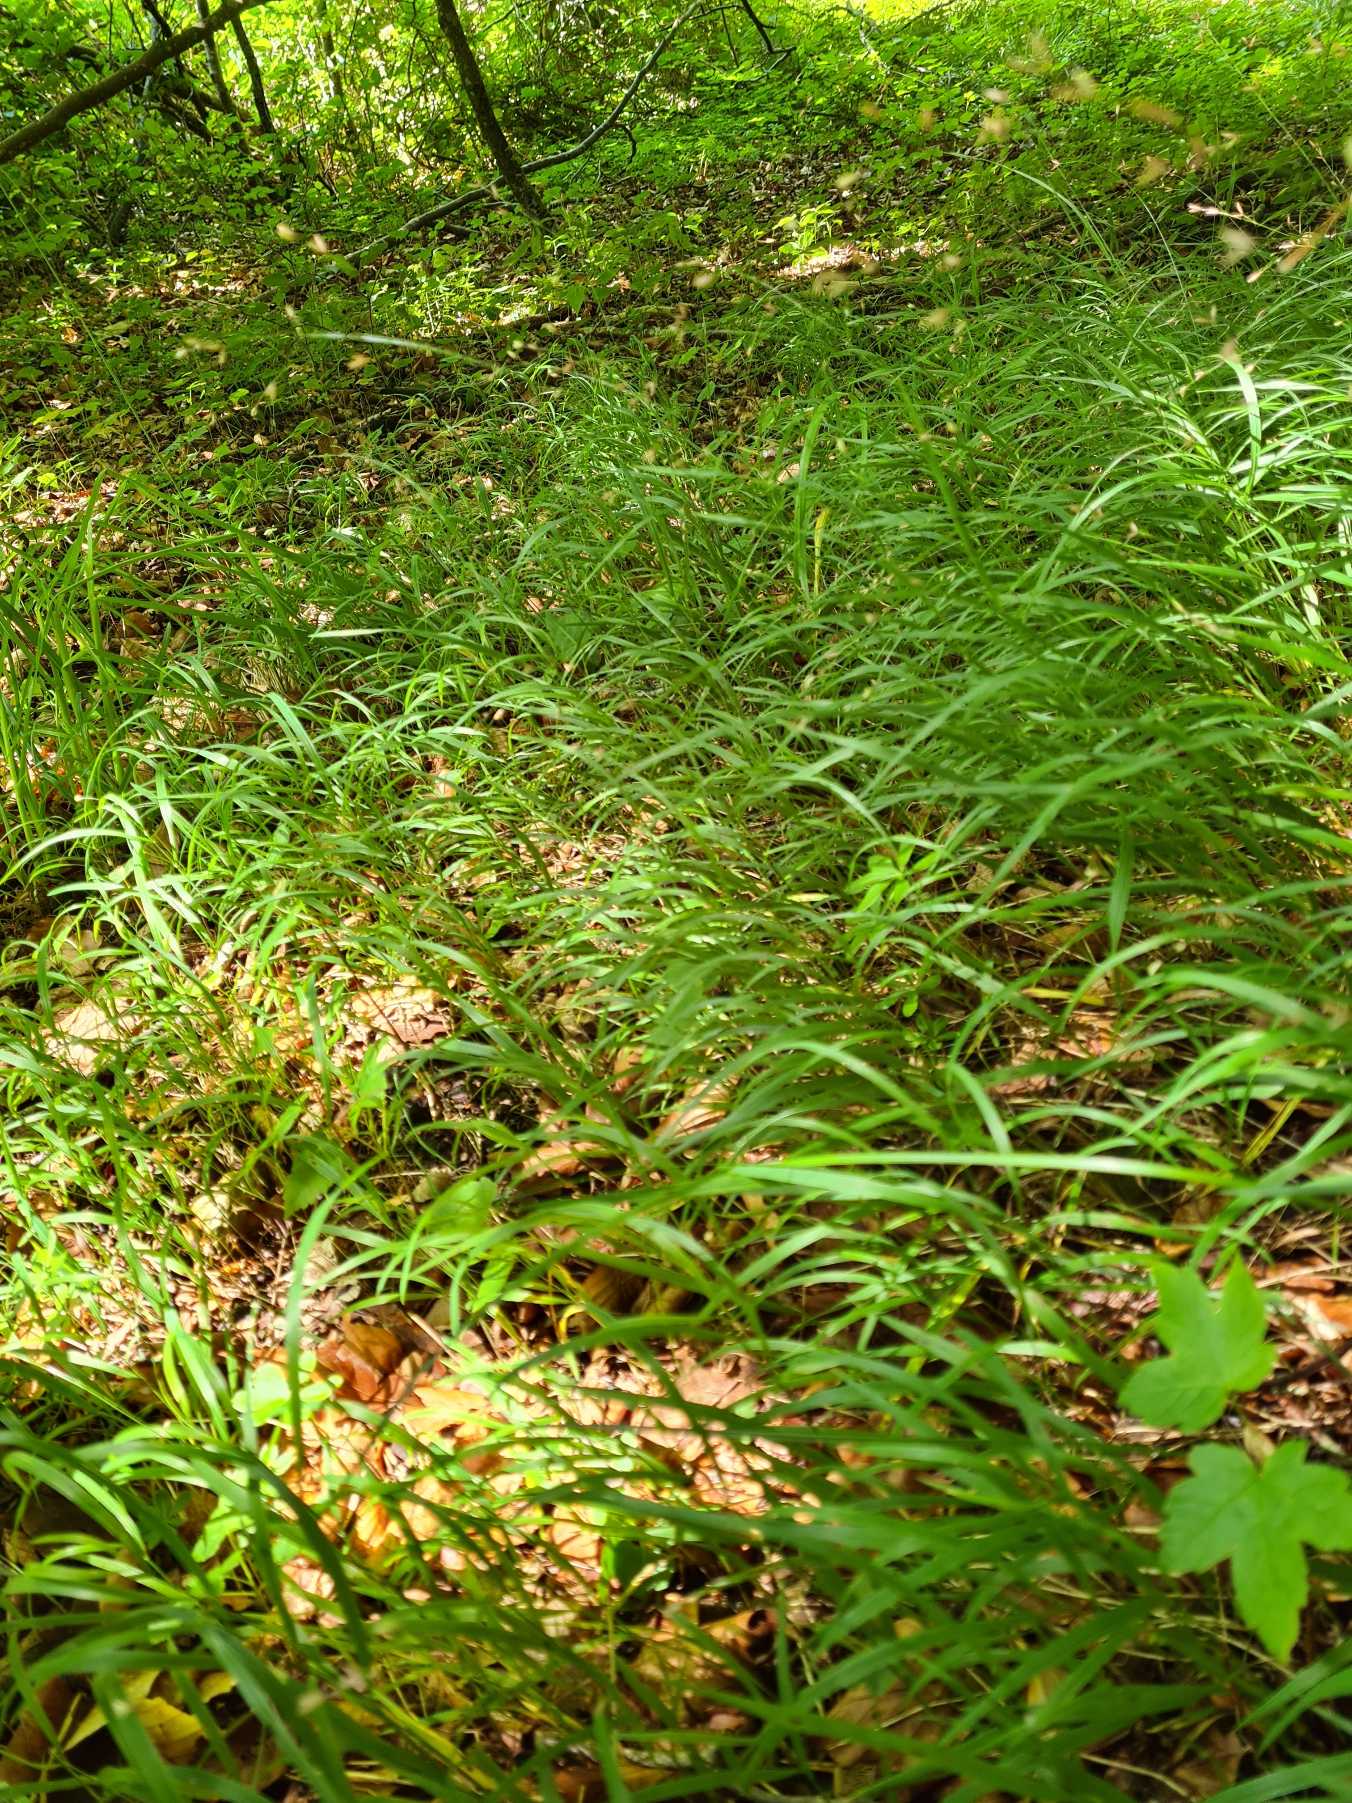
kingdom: Plantae
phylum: Tracheophyta
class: Liliopsida
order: Poales
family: Poaceae
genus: Melica
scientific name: Melica uniflora
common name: Enblomstret flitteraks
